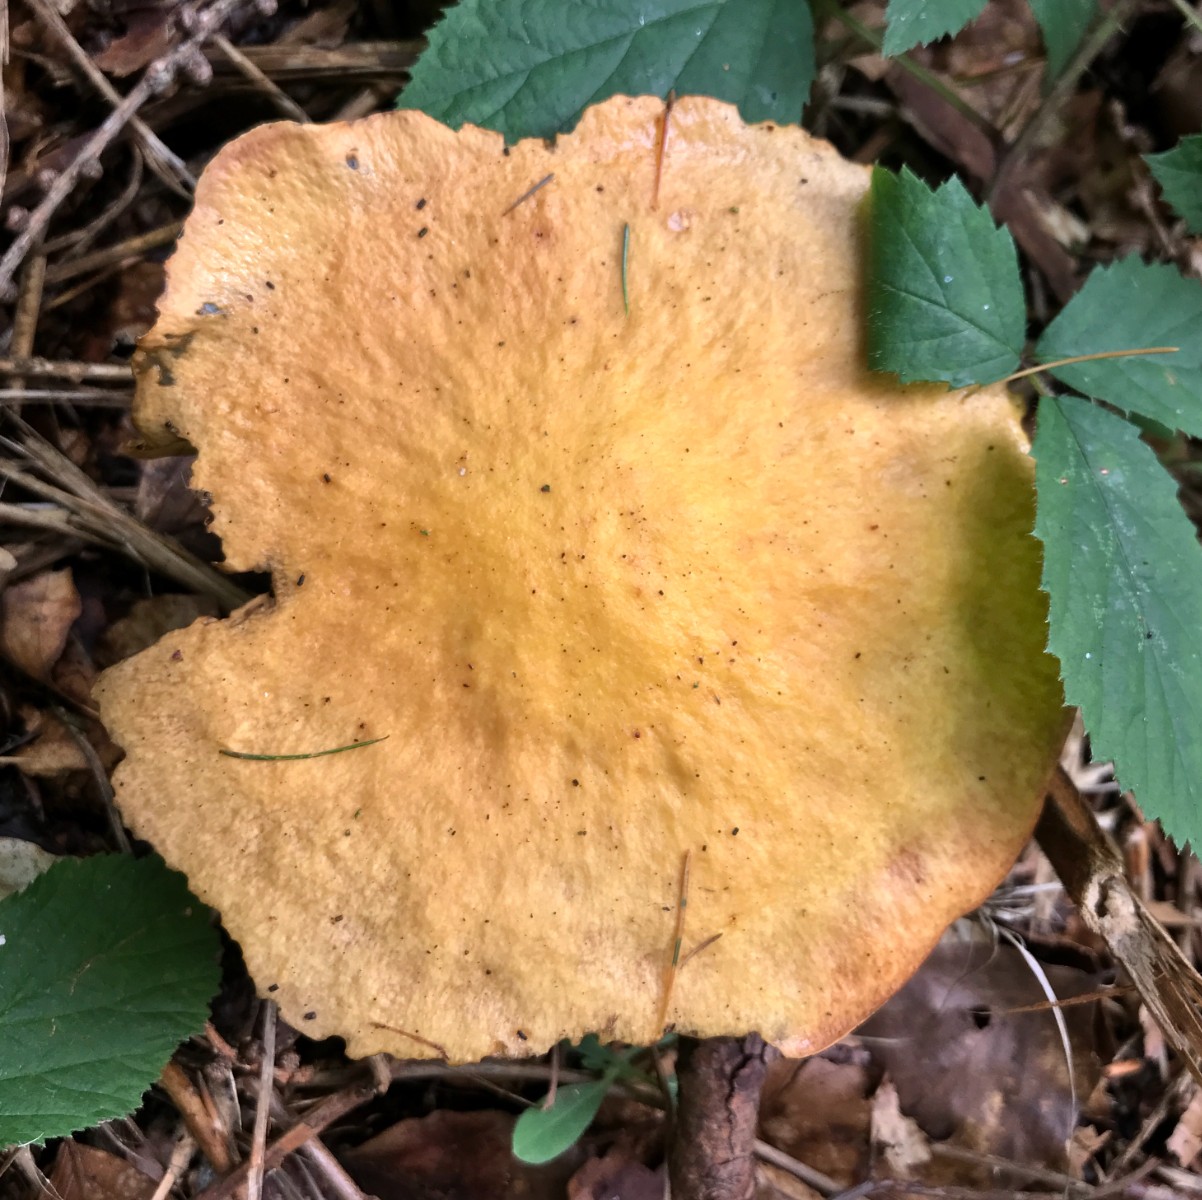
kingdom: Fungi
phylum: Basidiomycota
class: Agaricomycetes
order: Boletales
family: Suillaceae
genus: Suillus
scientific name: Suillus grevillei
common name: lærke-slimrørhat
